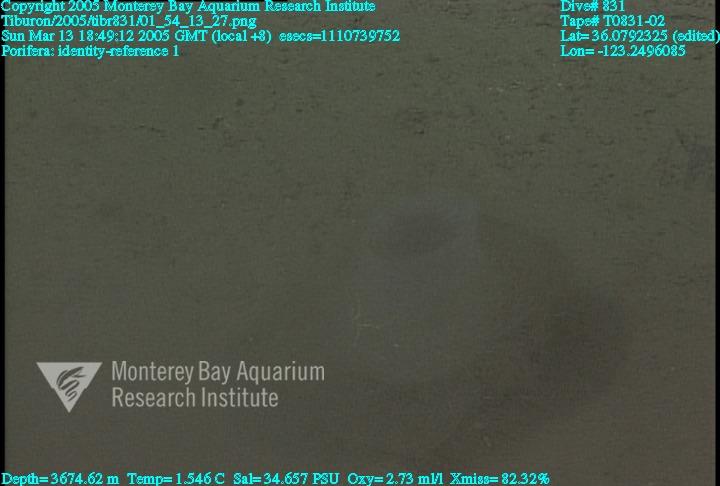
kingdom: Animalia
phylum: Porifera
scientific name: Porifera
